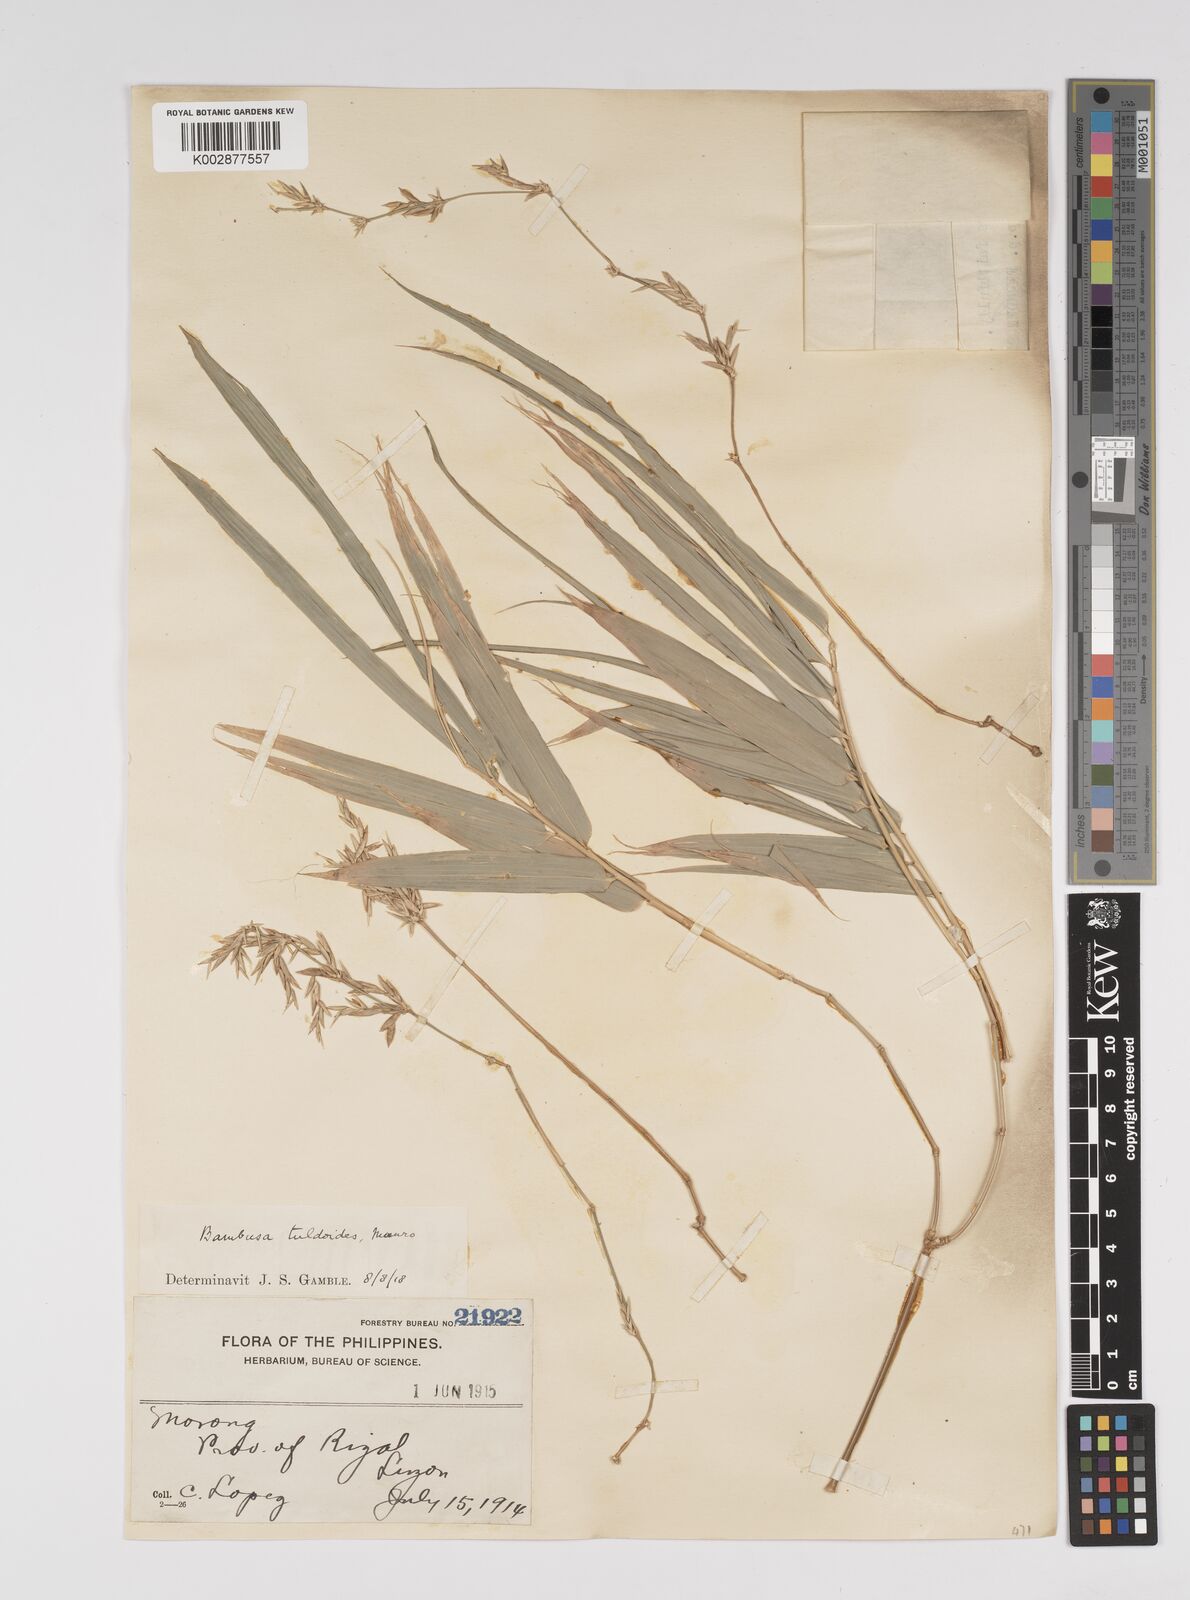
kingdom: Plantae
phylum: Tracheophyta
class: Liliopsida
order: Poales
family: Poaceae
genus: Bambusa
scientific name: Bambusa tuldoides
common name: Verdant bamboo
